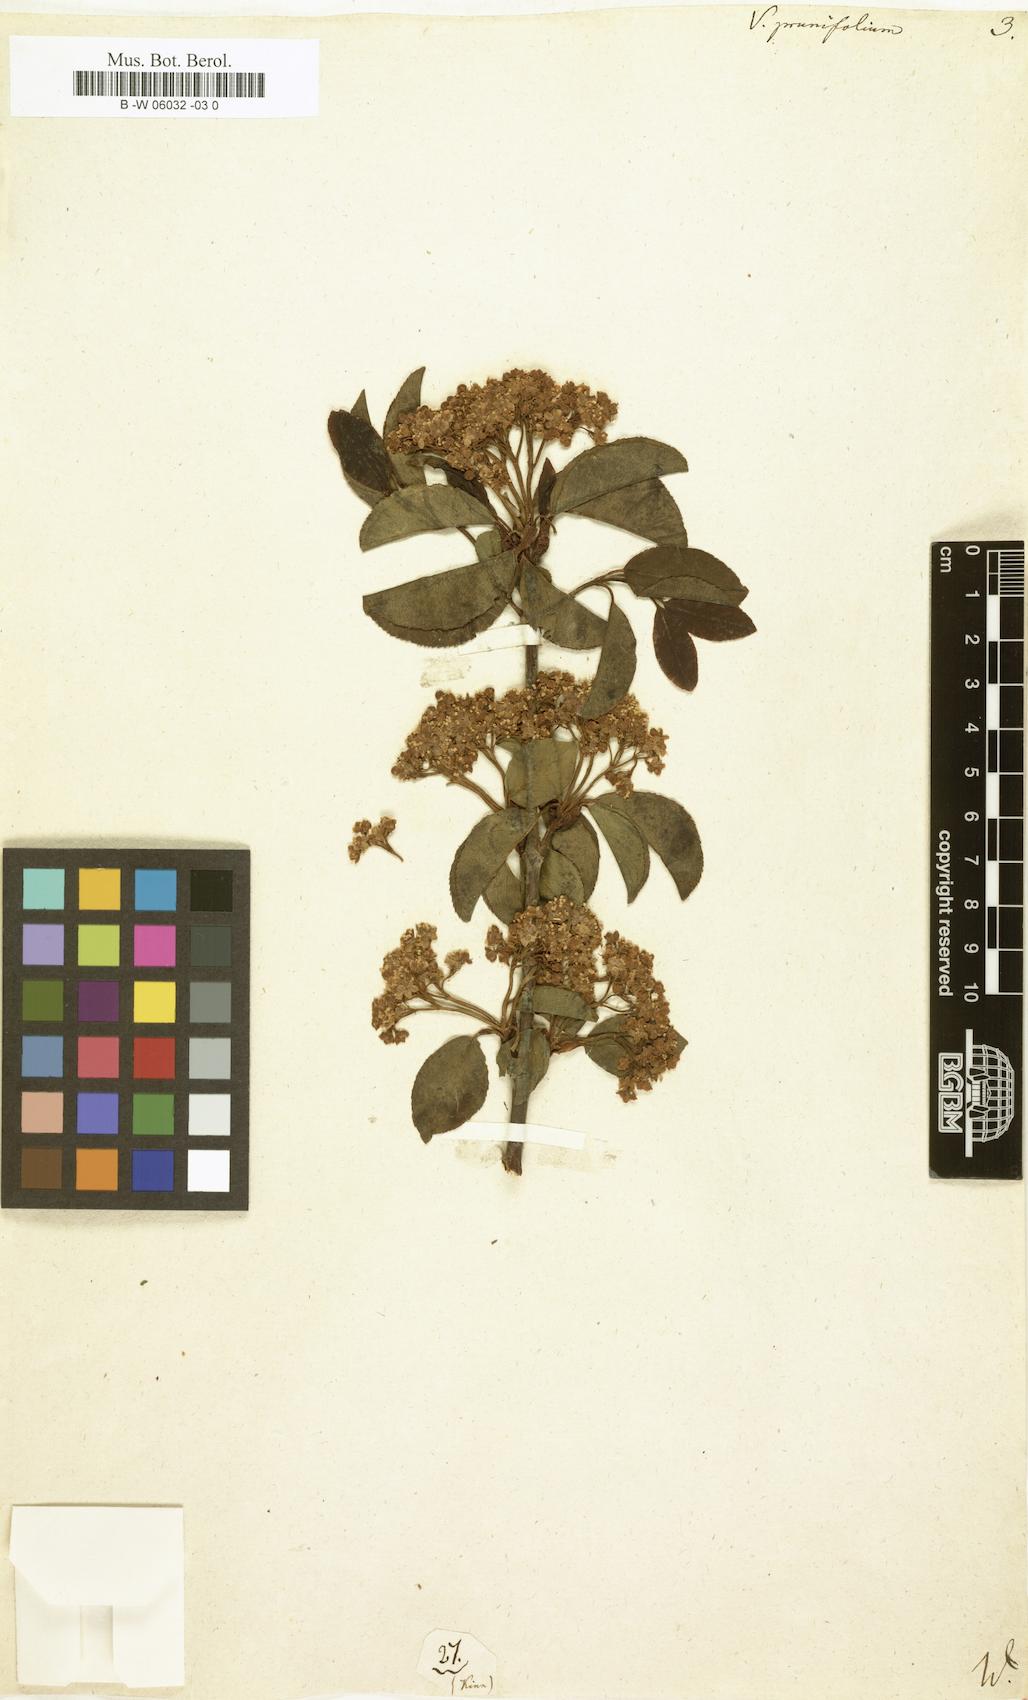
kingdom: Plantae
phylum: Tracheophyta
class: Magnoliopsida
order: Dipsacales
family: Viburnaceae
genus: Viburnum
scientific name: Viburnum prunifolium
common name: Black haw
